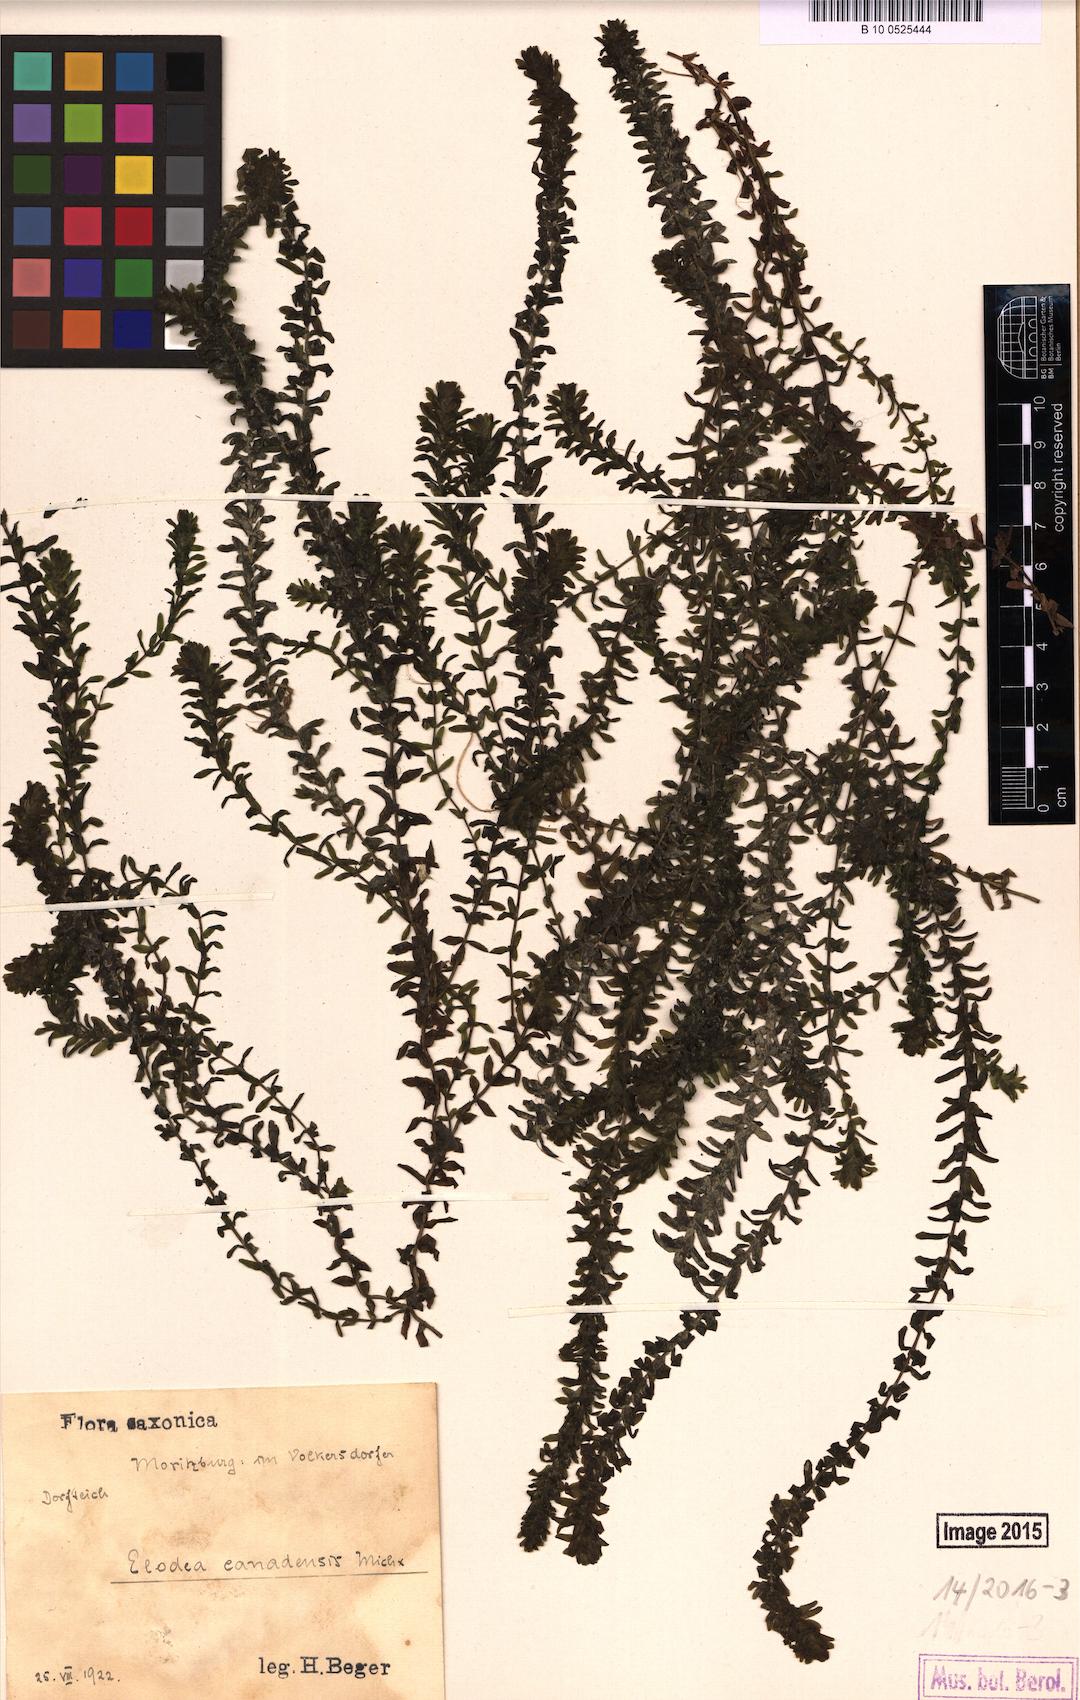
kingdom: Plantae
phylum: Tracheophyta
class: Liliopsida
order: Alismatales
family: Hydrocharitaceae
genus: Elodea
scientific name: Elodea canadensis
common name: Canadian waterweed
